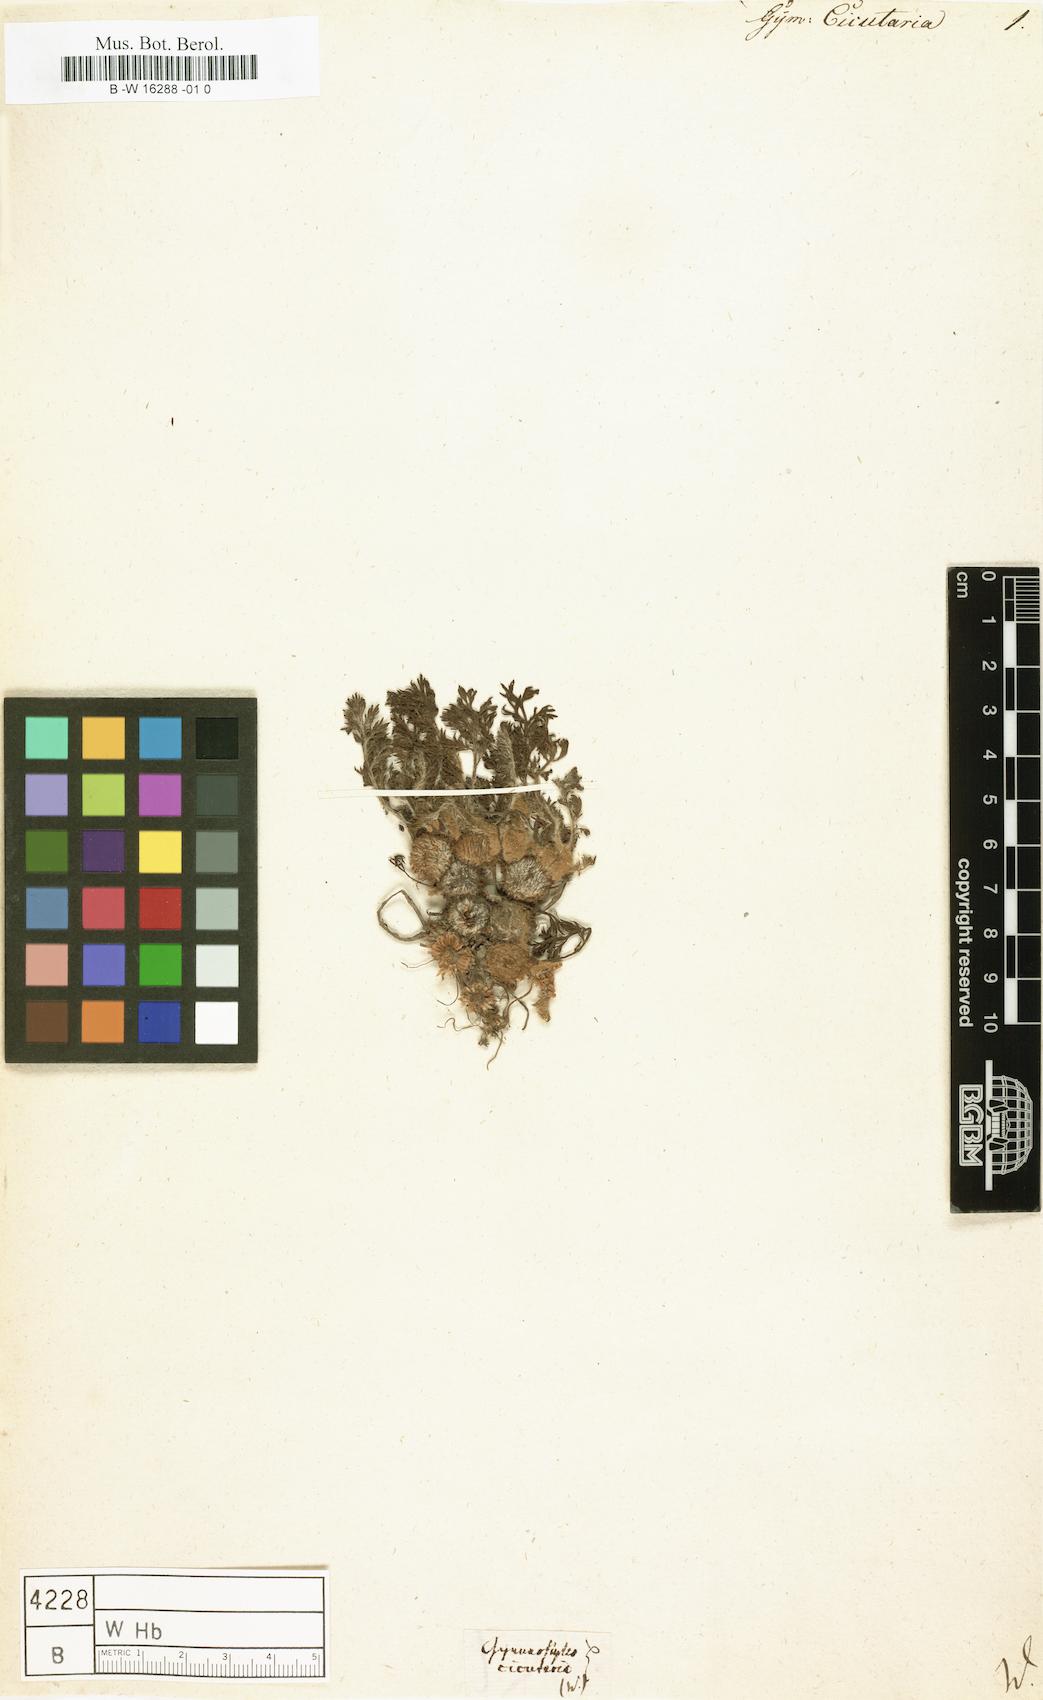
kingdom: Plantae
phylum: Tracheophyta
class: Magnoliopsida
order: Asterales
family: Asteraceae
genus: Gymnostyles
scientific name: Gymnostyles
